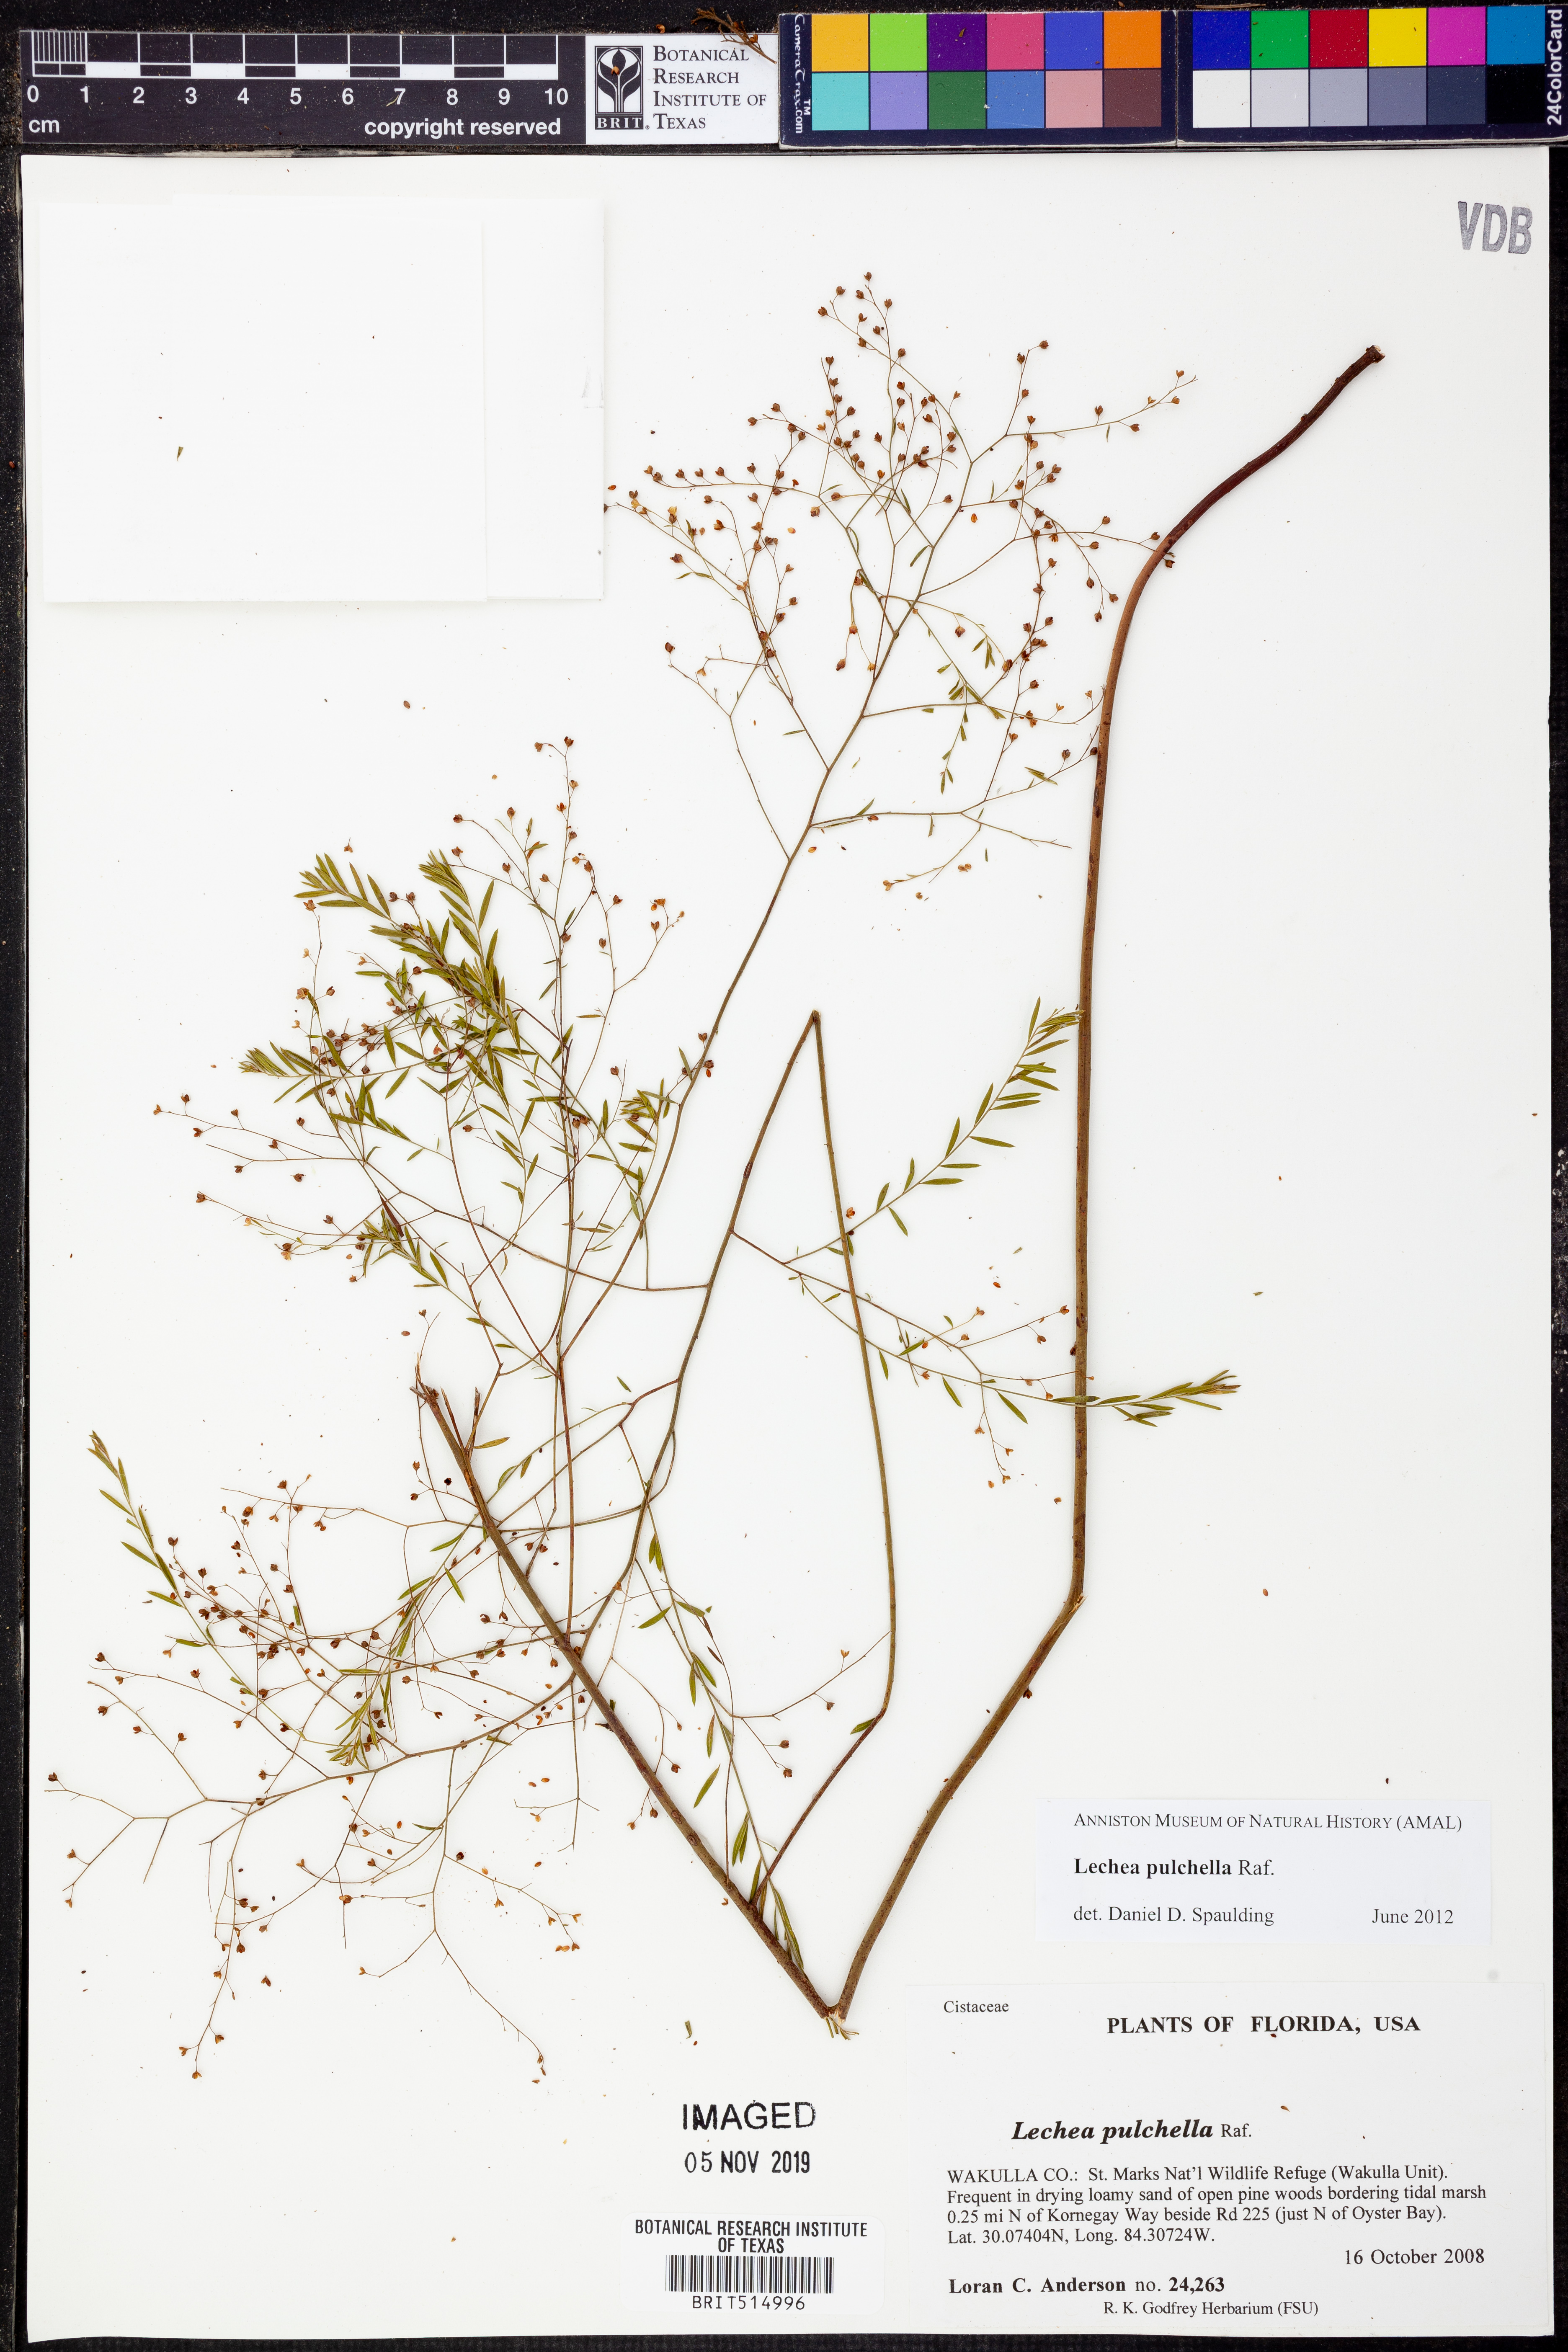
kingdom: Plantae
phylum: Tracheophyta
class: Magnoliopsida
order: Malvales
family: Cistaceae
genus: Lechea
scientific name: Lechea pulchella
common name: Leggett's pinweed
